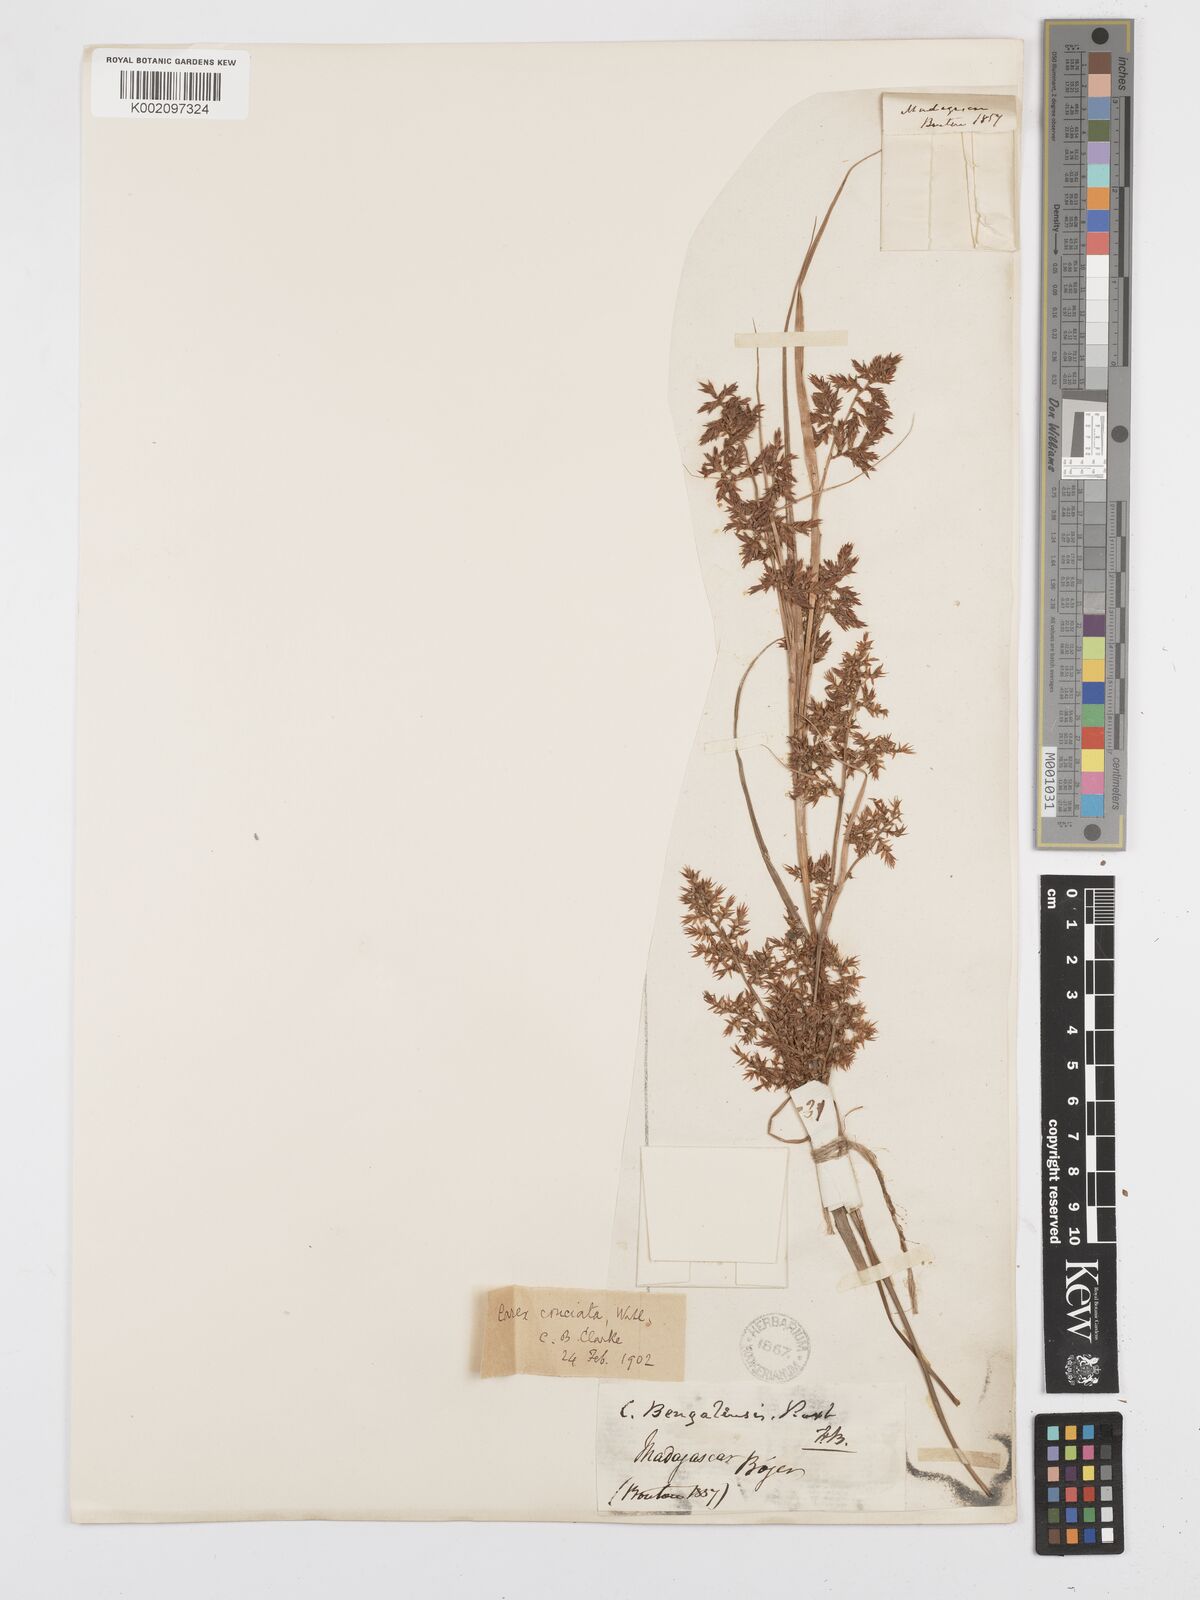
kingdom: Plantae
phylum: Tracheophyta
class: Liliopsida
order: Poales
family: Cyperaceae
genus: Carex
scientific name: Carex pyramidalis
